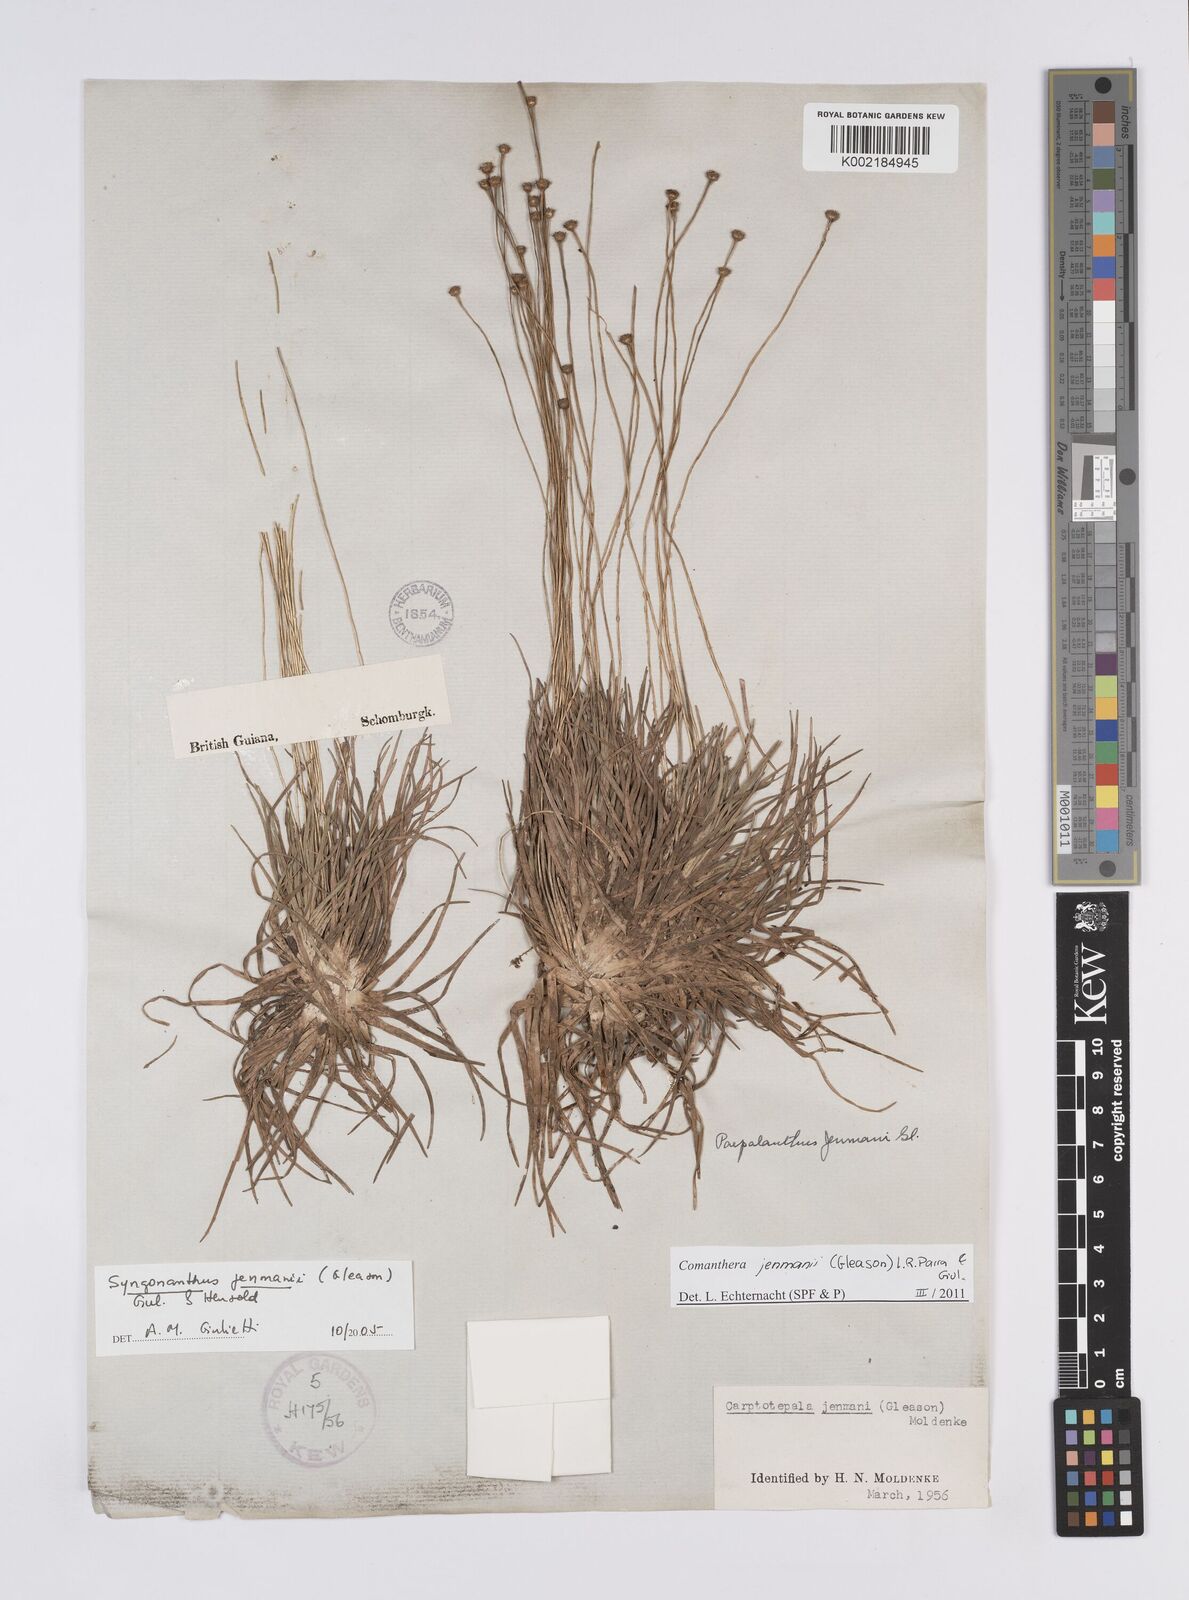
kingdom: Plantae
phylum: Tracheophyta
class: Liliopsida
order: Poales
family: Eriocaulaceae
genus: Comanthera
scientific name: Comanthera jenmanii
